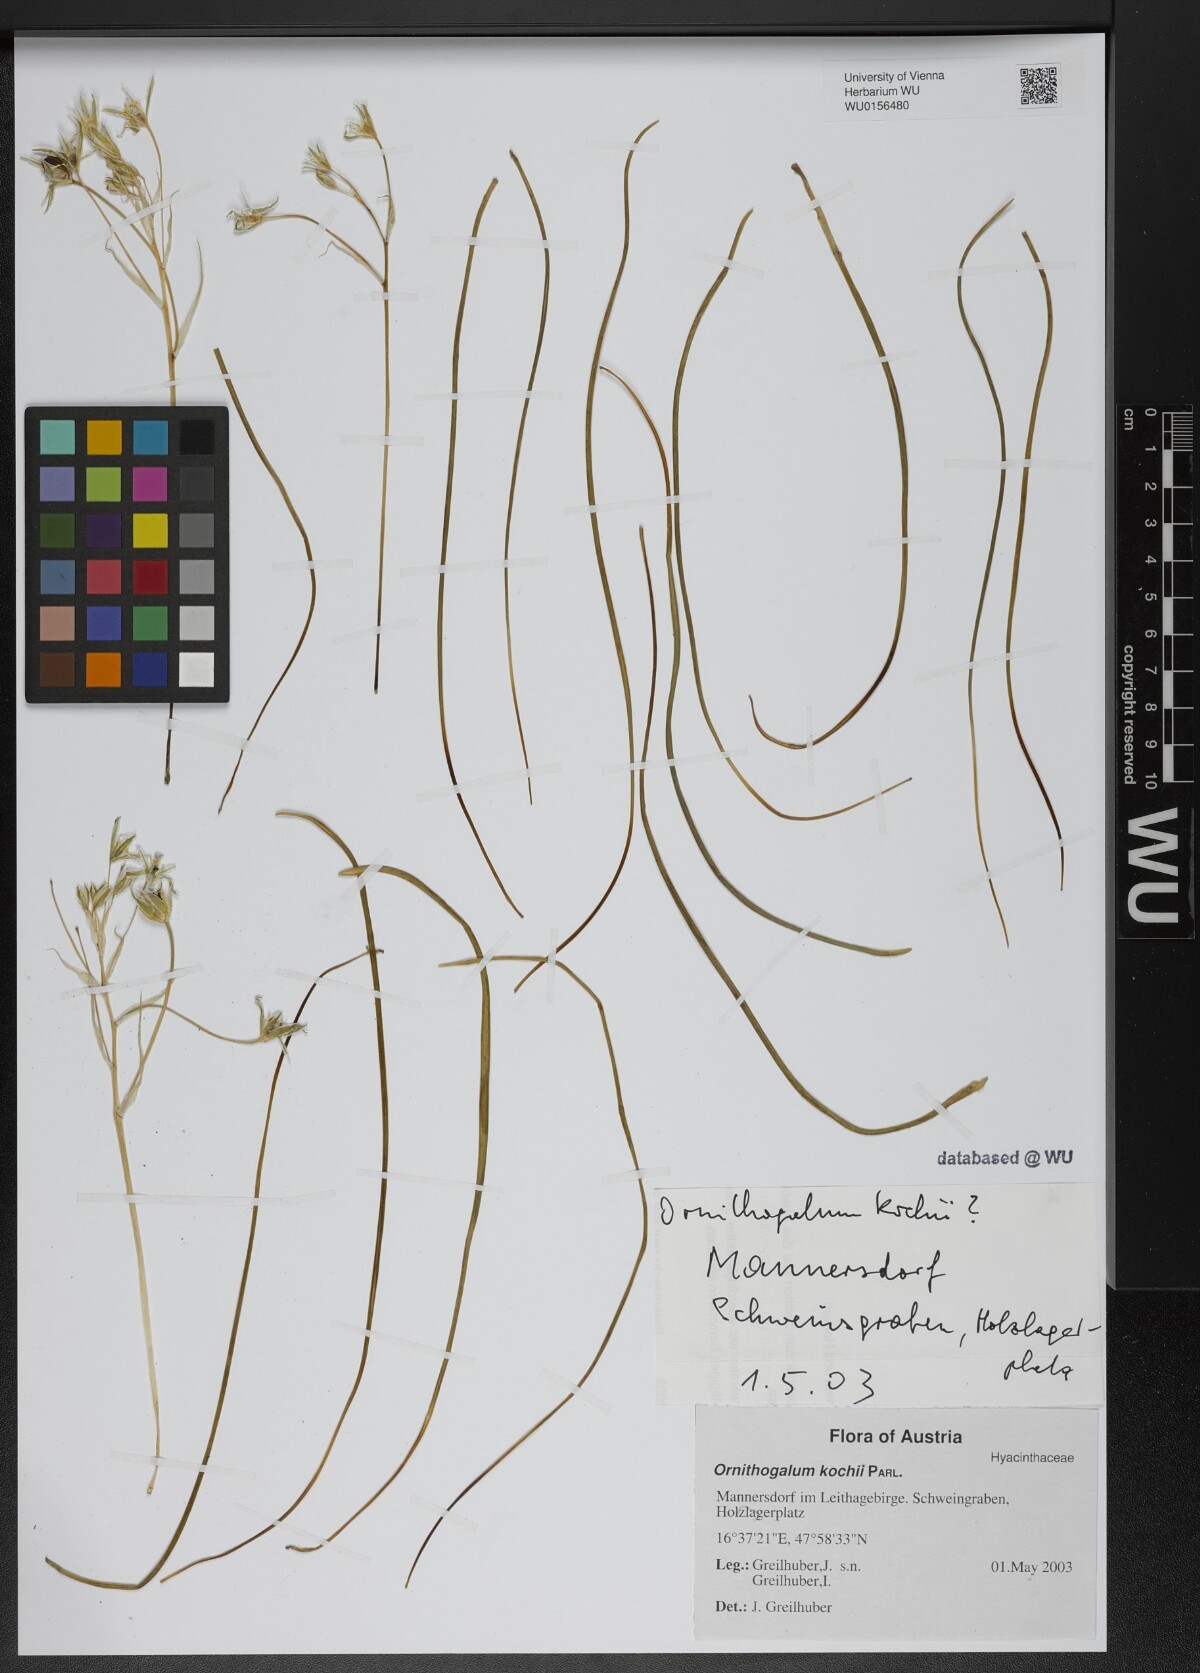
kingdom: Plantae
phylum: Tracheophyta
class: Liliopsida
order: Asparagales
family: Asparagaceae
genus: Ornithogalum
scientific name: Ornithogalum orthophyllum
